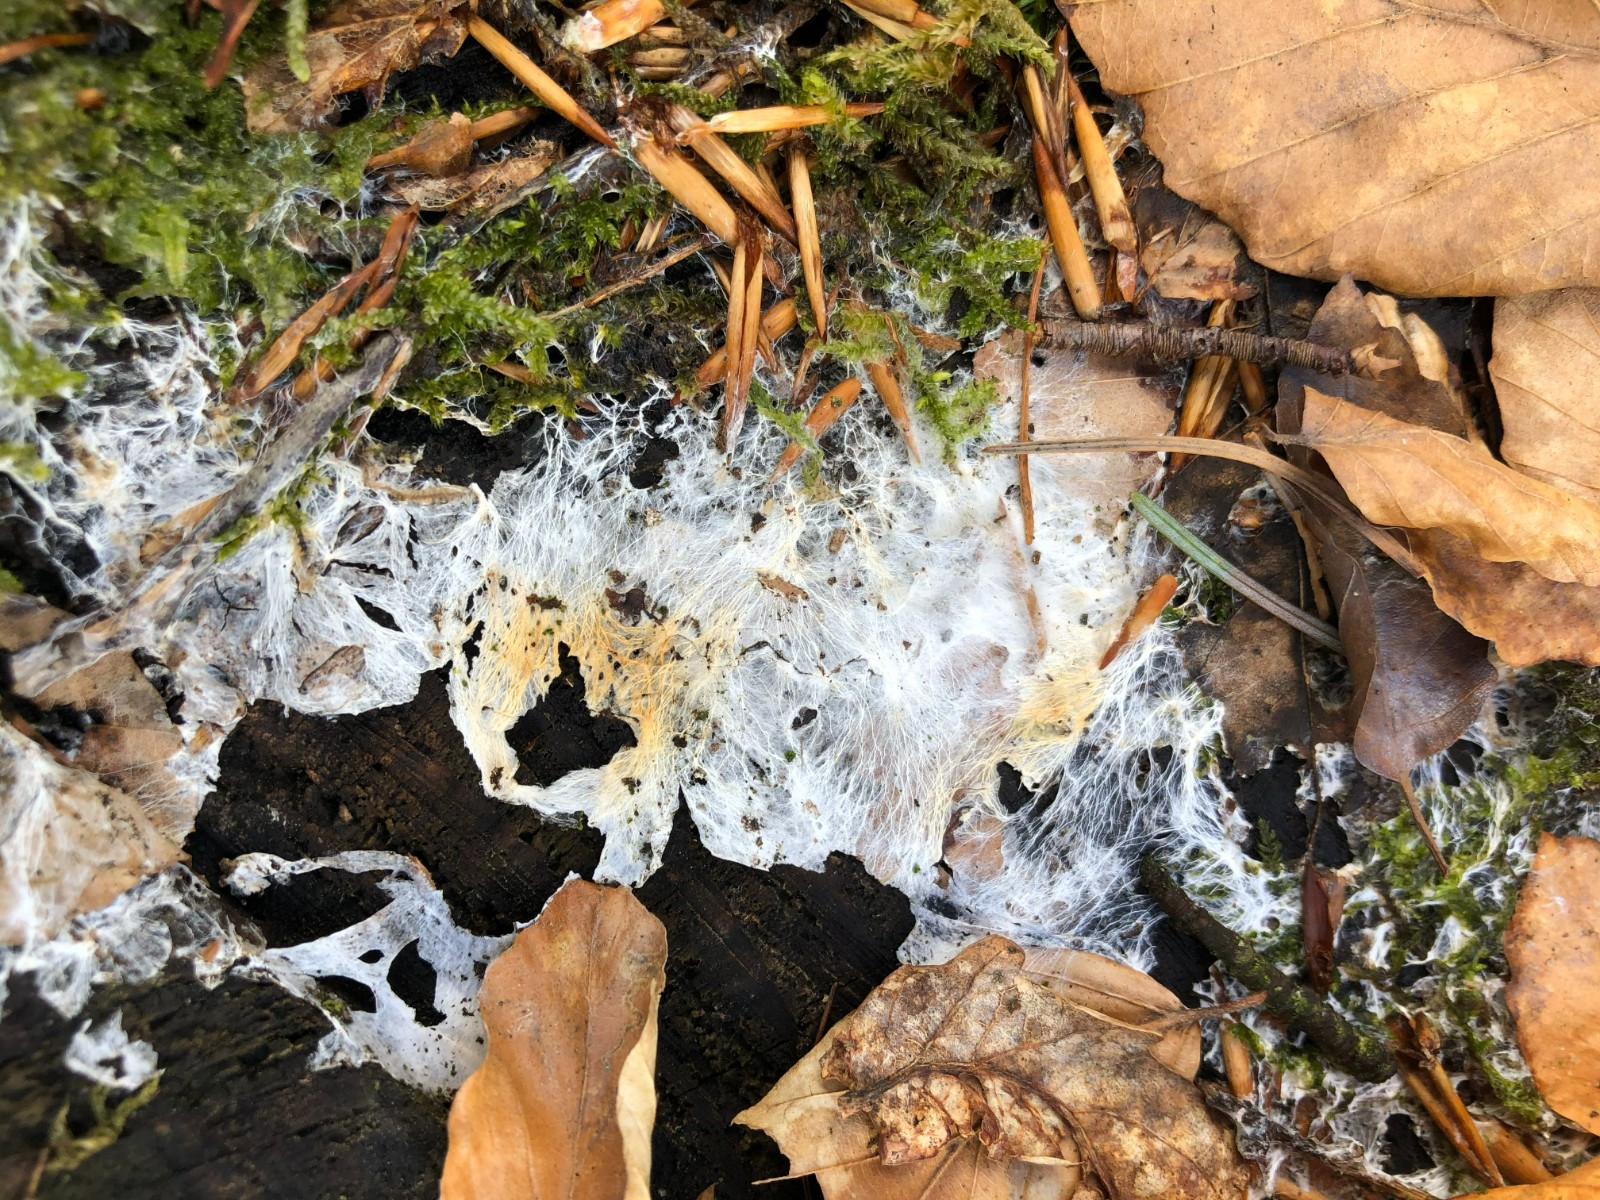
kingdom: Fungi
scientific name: Fungi
